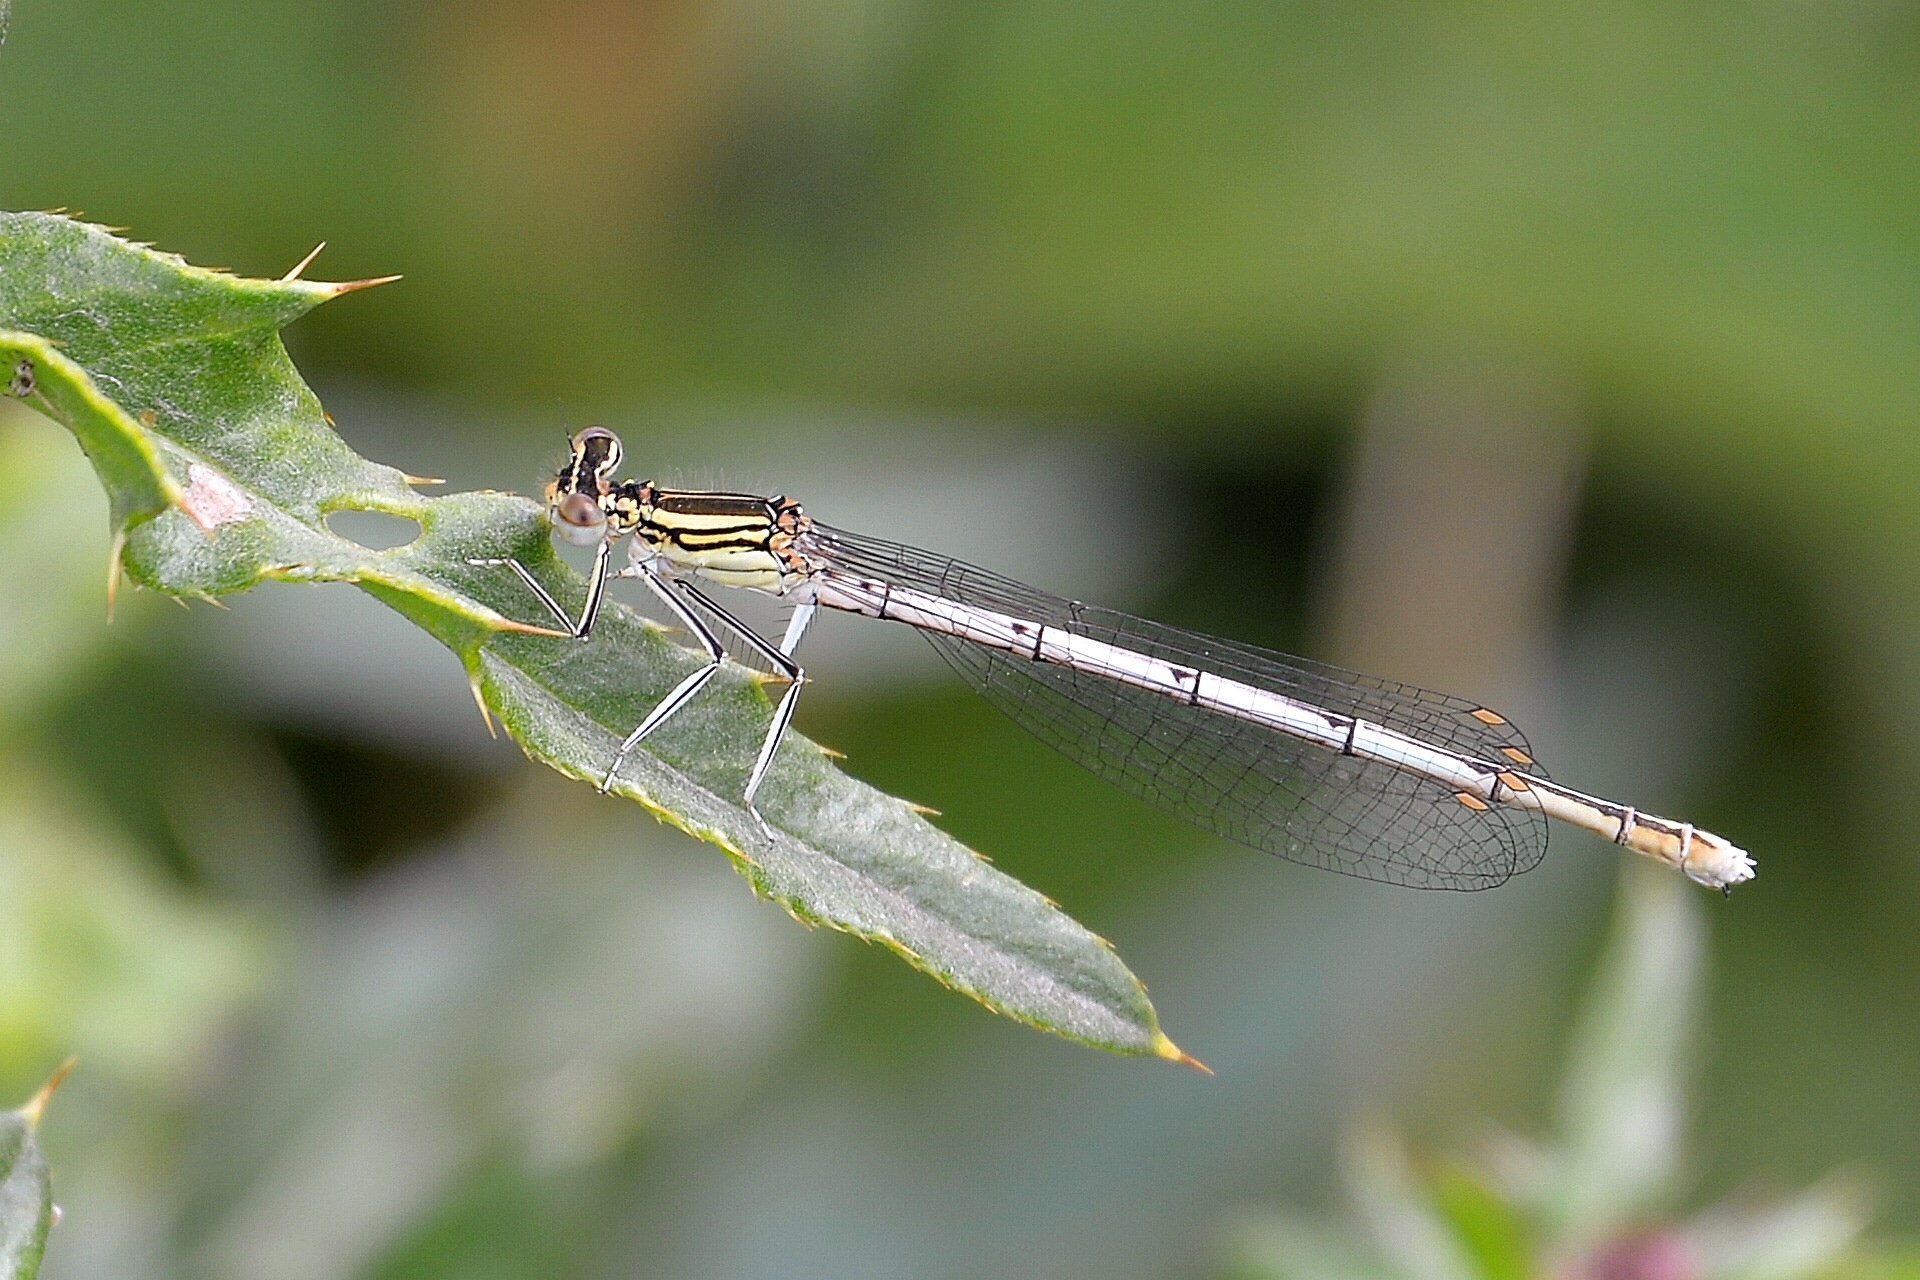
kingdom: Animalia
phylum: Arthropoda
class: Insecta
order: Odonata
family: Platycnemididae
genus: Platycnemis
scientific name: Platycnemis pennipes
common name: White-legged damselfly
